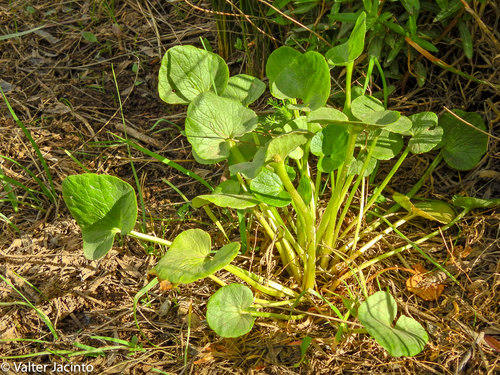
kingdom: Plantae
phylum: Tracheophyta
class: Magnoliopsida
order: Ranunculales
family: Ranunculaceae
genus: Ficaria
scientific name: Ficaria verna
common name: Lesser celandine
